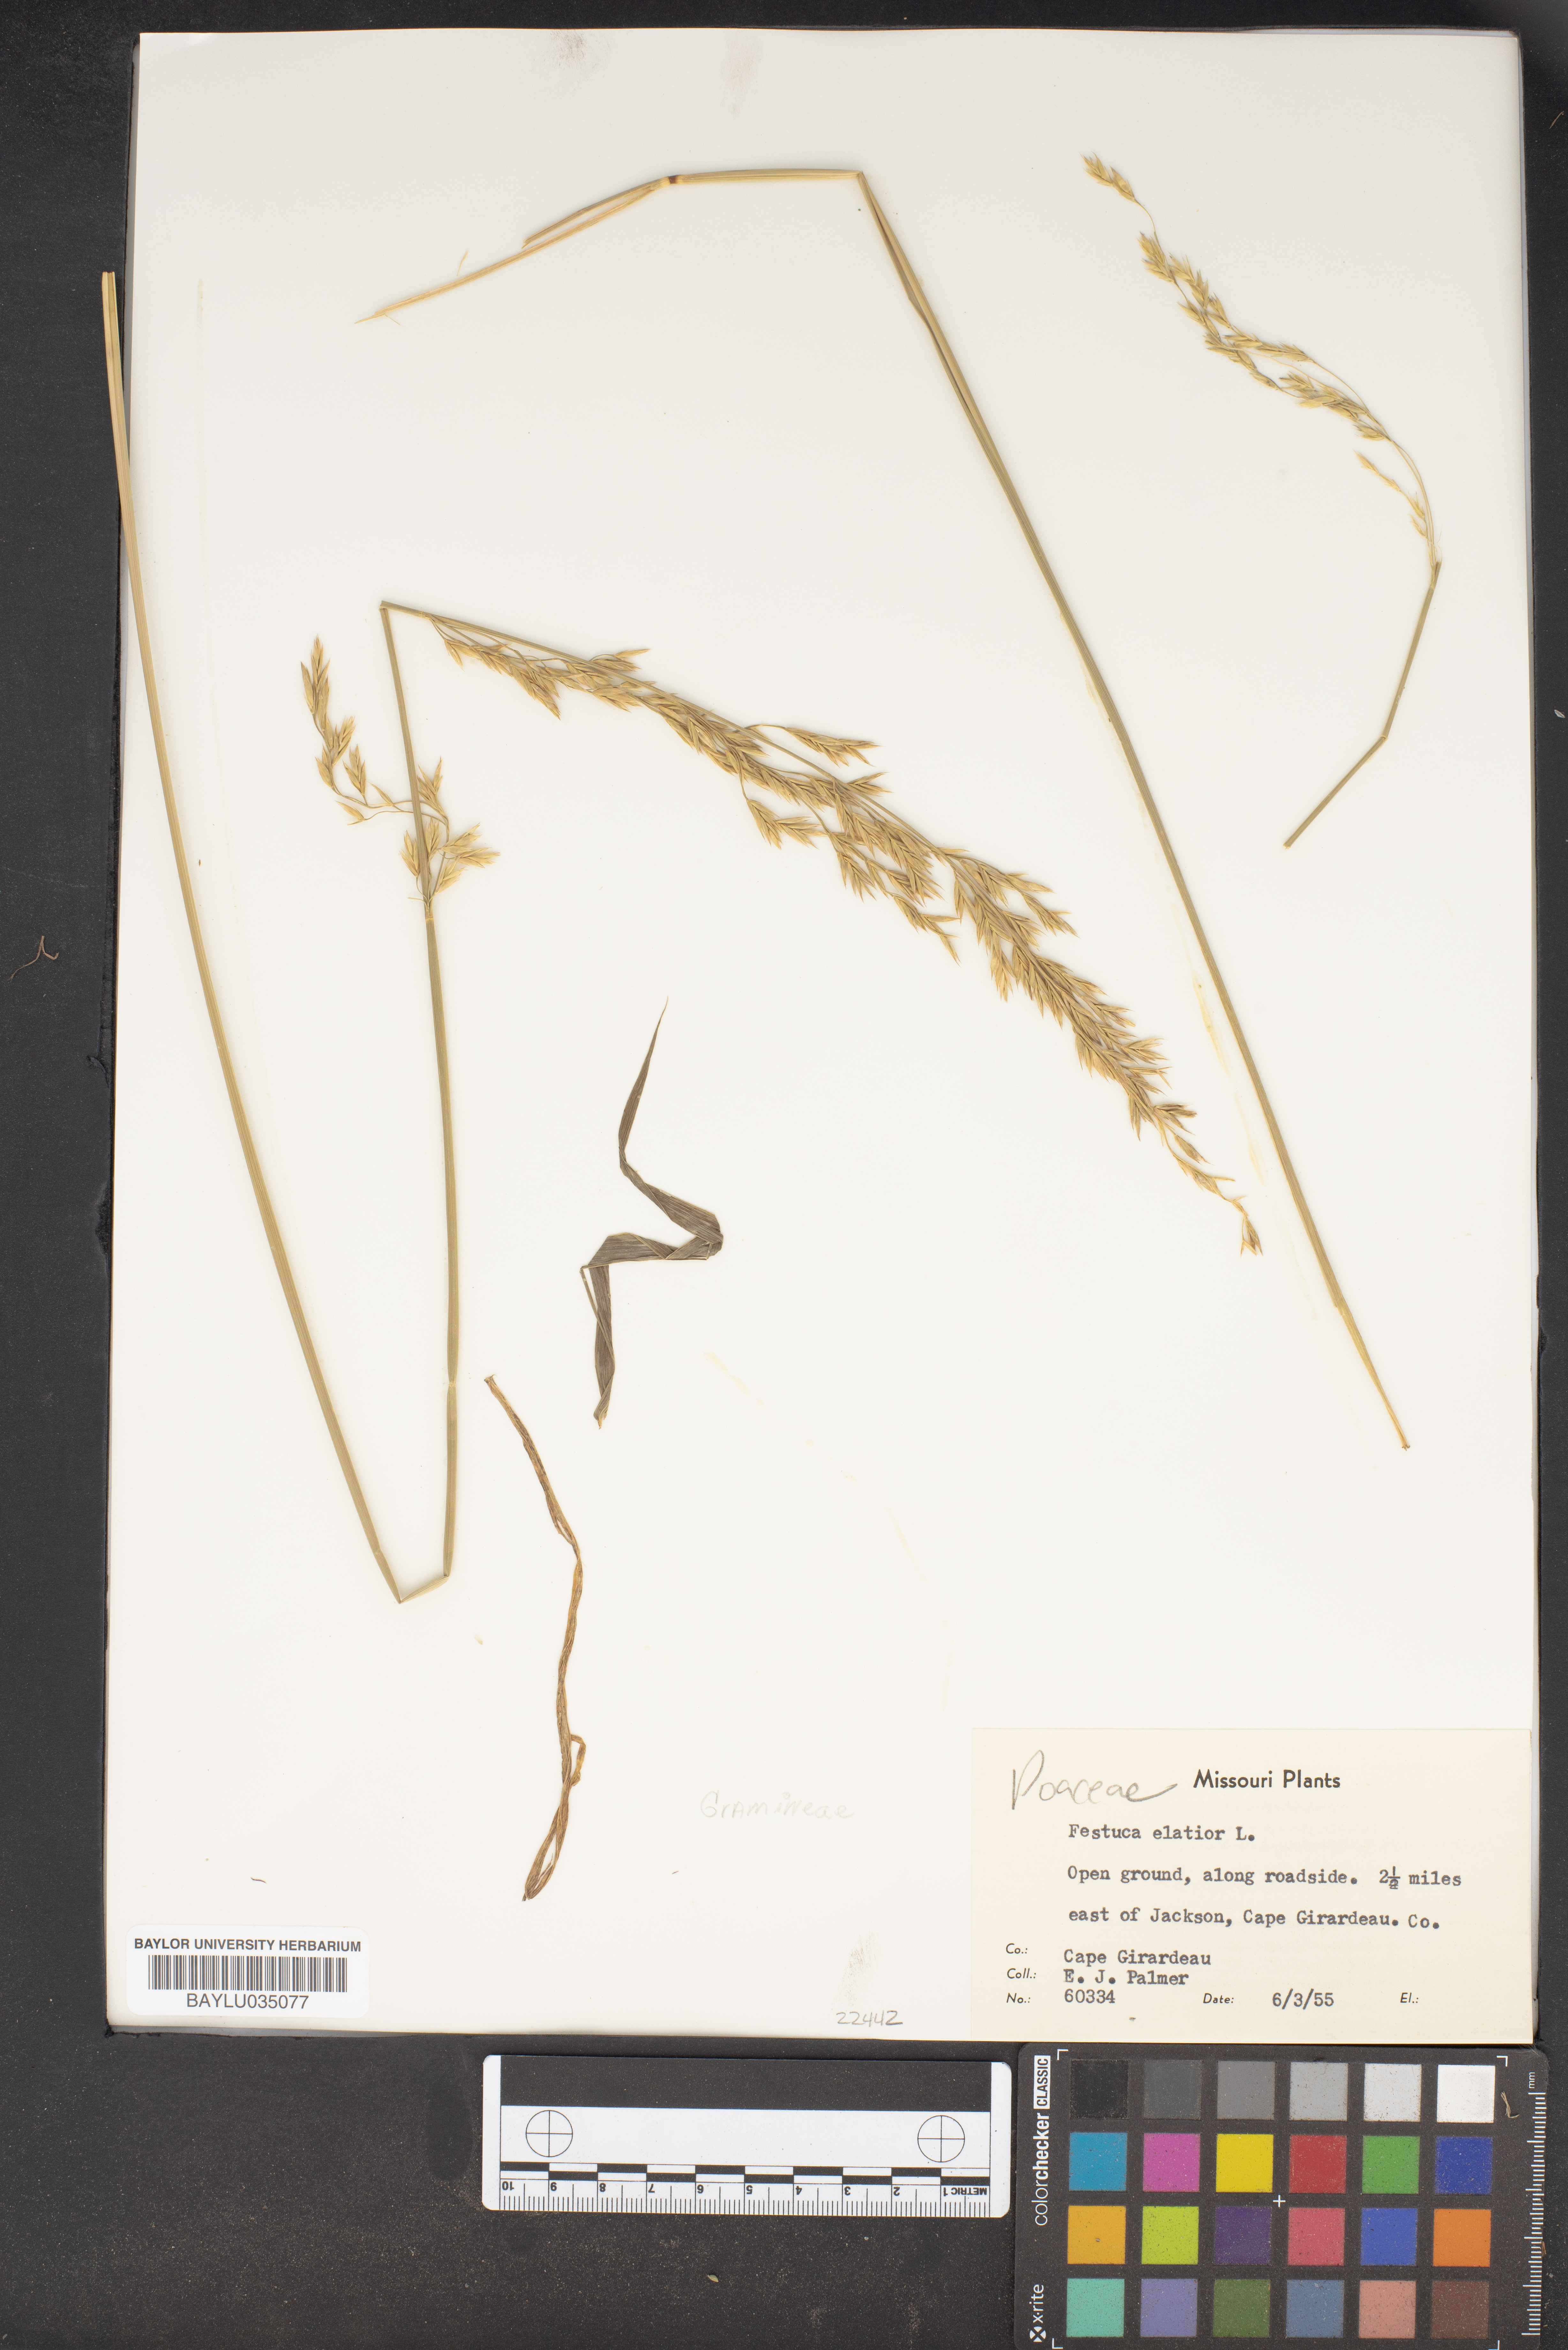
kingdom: Plantae
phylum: Tracheophyta
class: Liliopsida
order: Poales
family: Poaceae
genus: Lolium
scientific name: Lolium arundinaceum
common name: Reed fescue
